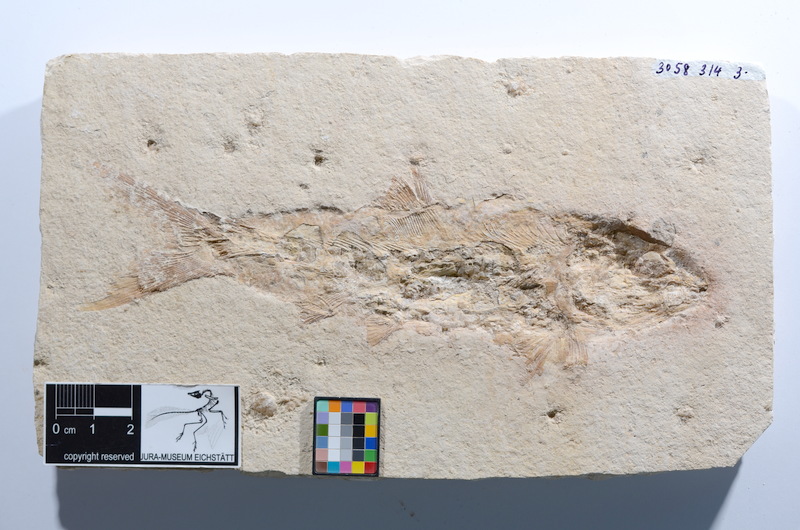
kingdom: Animalia
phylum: Chordata
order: Amiiformes
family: Caturidae
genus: Caturus
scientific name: Caturus furcatus
